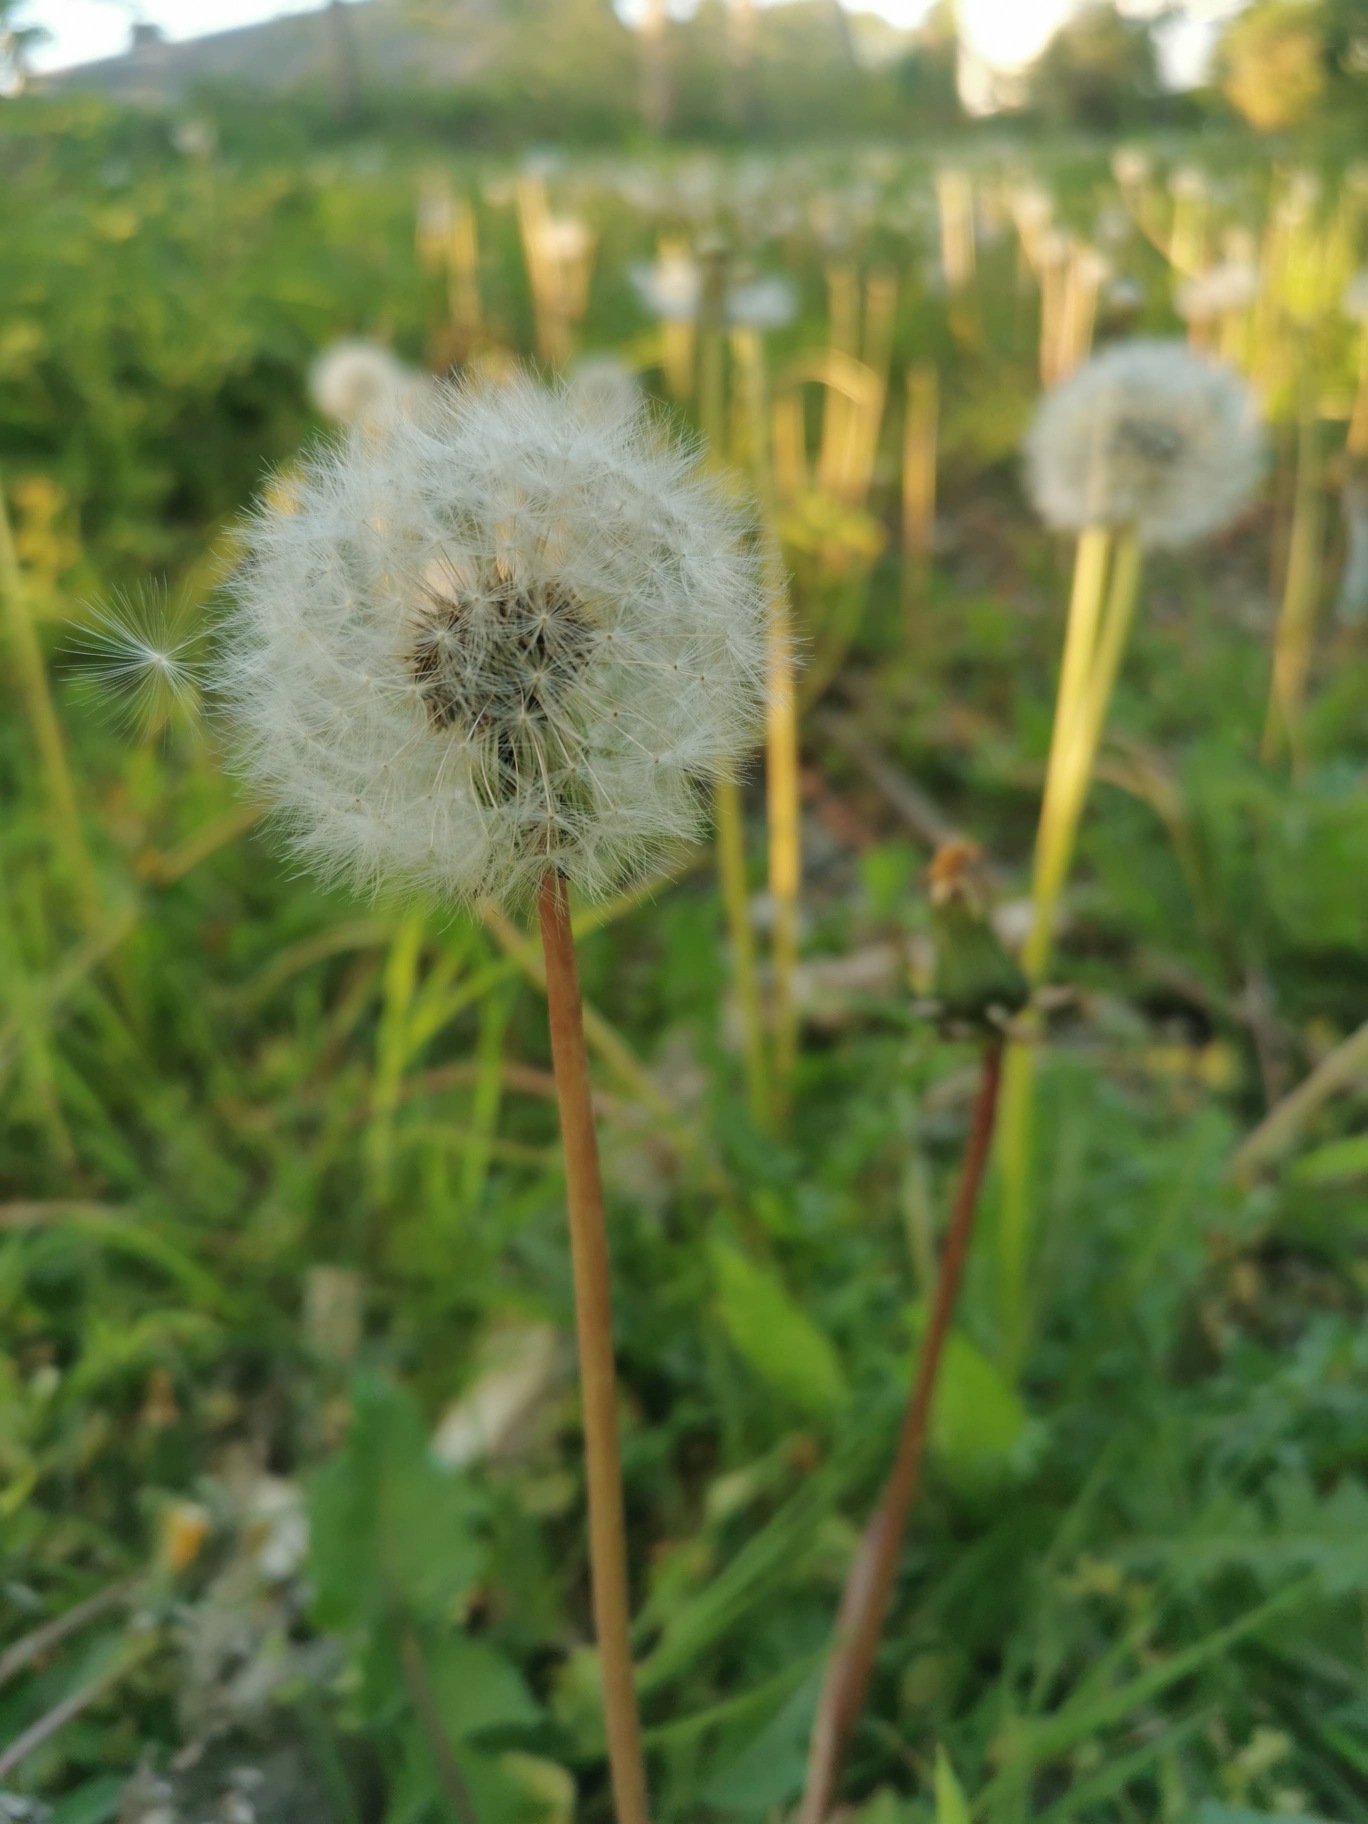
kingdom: Plantae
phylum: Tracheophyta
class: Magnoliopsida
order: Asterales
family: Asteraceae
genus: Taraxacum
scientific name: Taraxacum
